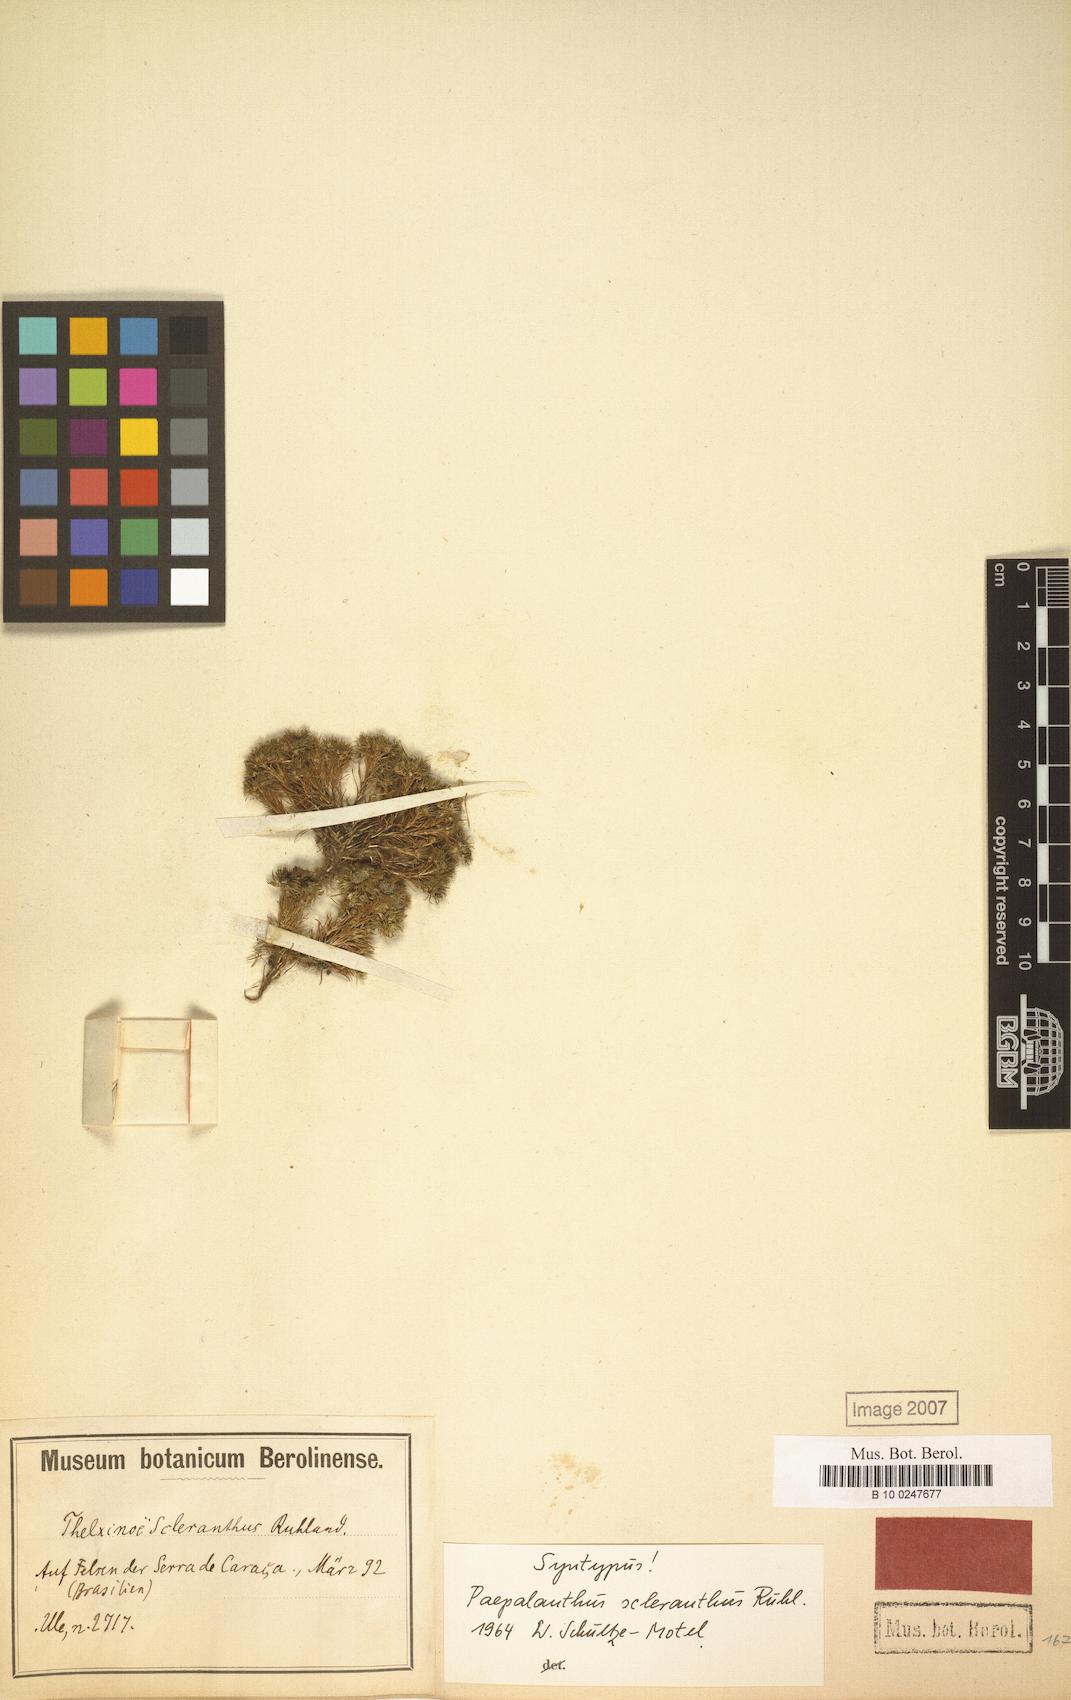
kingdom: Plantae
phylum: Tracheophyta
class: Liliopsida
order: Poales
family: Eriocaulaceae
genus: Paepalanthus
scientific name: Paepalanthus scleranthus
